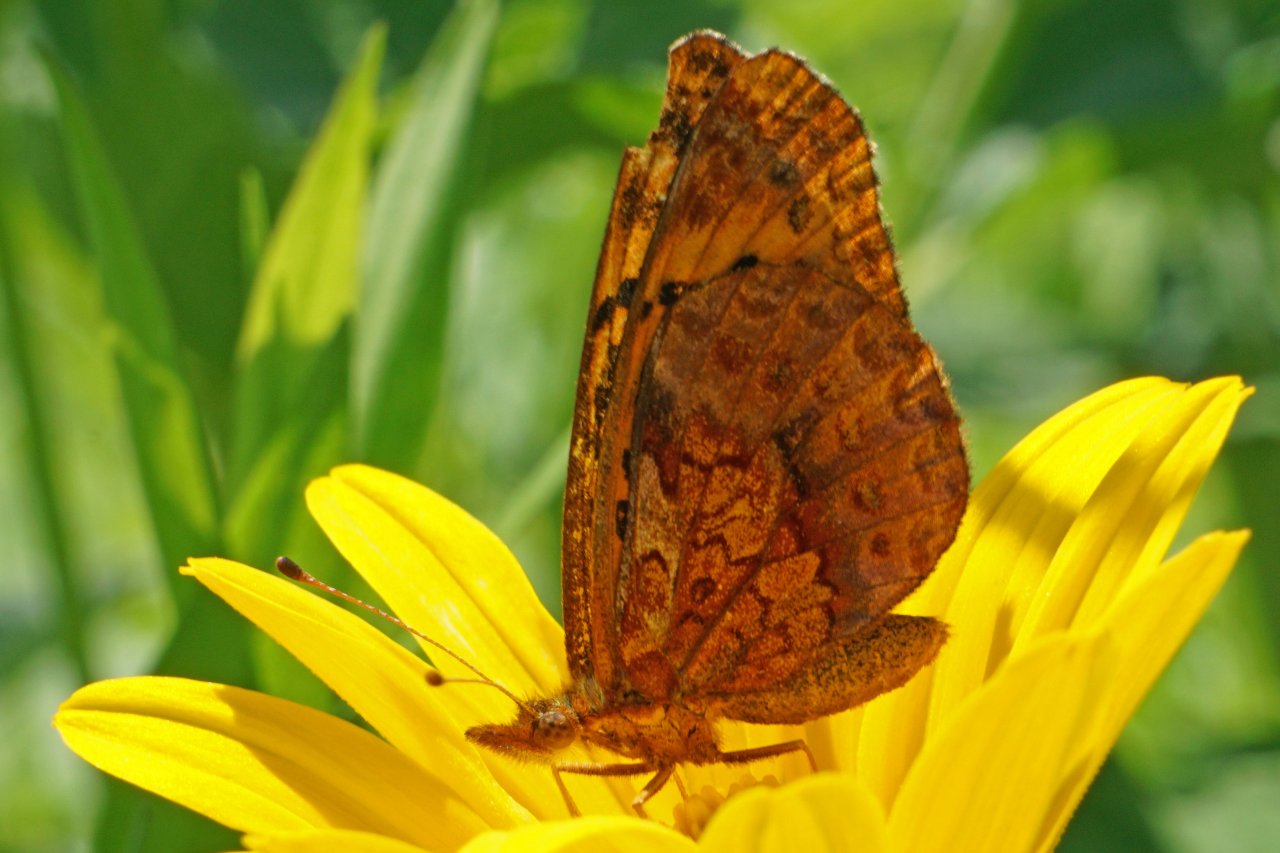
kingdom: Animalia
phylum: Arthropoda
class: Insecta
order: Lepidoptera
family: Nymphalidae
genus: Clossiana
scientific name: Clossiana toddi
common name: Meadow Fritillary
